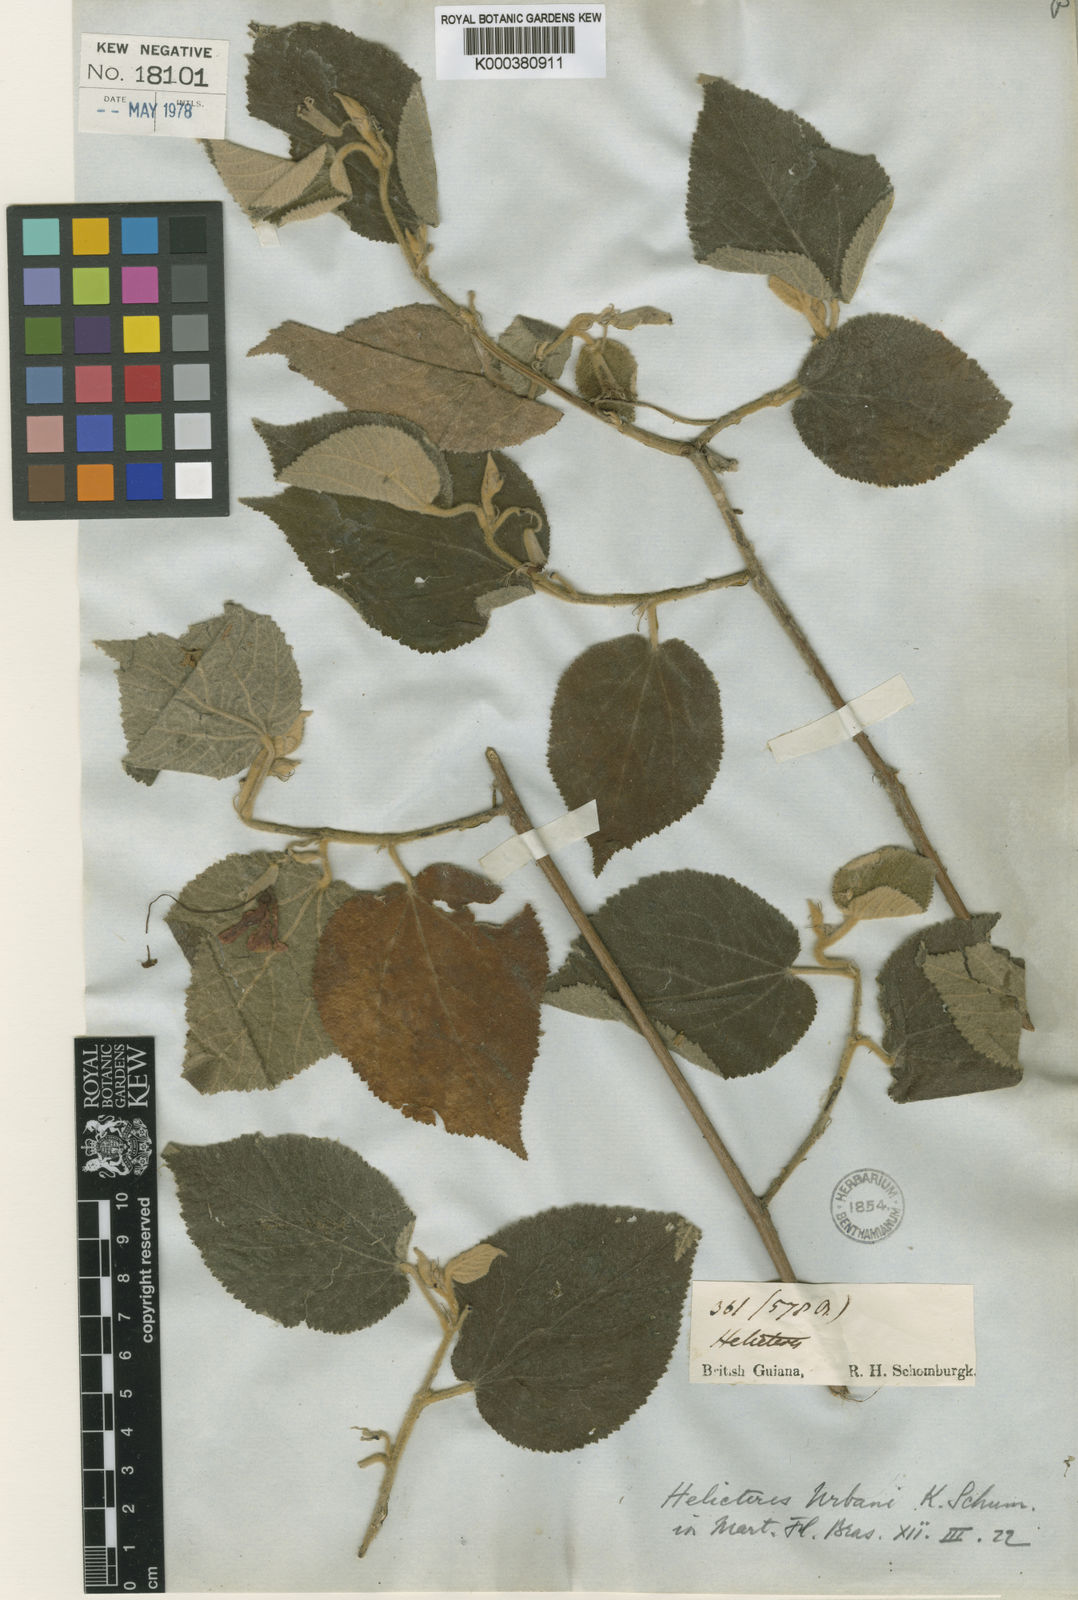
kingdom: Plantae
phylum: Tracheophyta
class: Magnoliopsida
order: Malvales
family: Malvaceae
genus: Helicteres
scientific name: Helicteres brevispira
